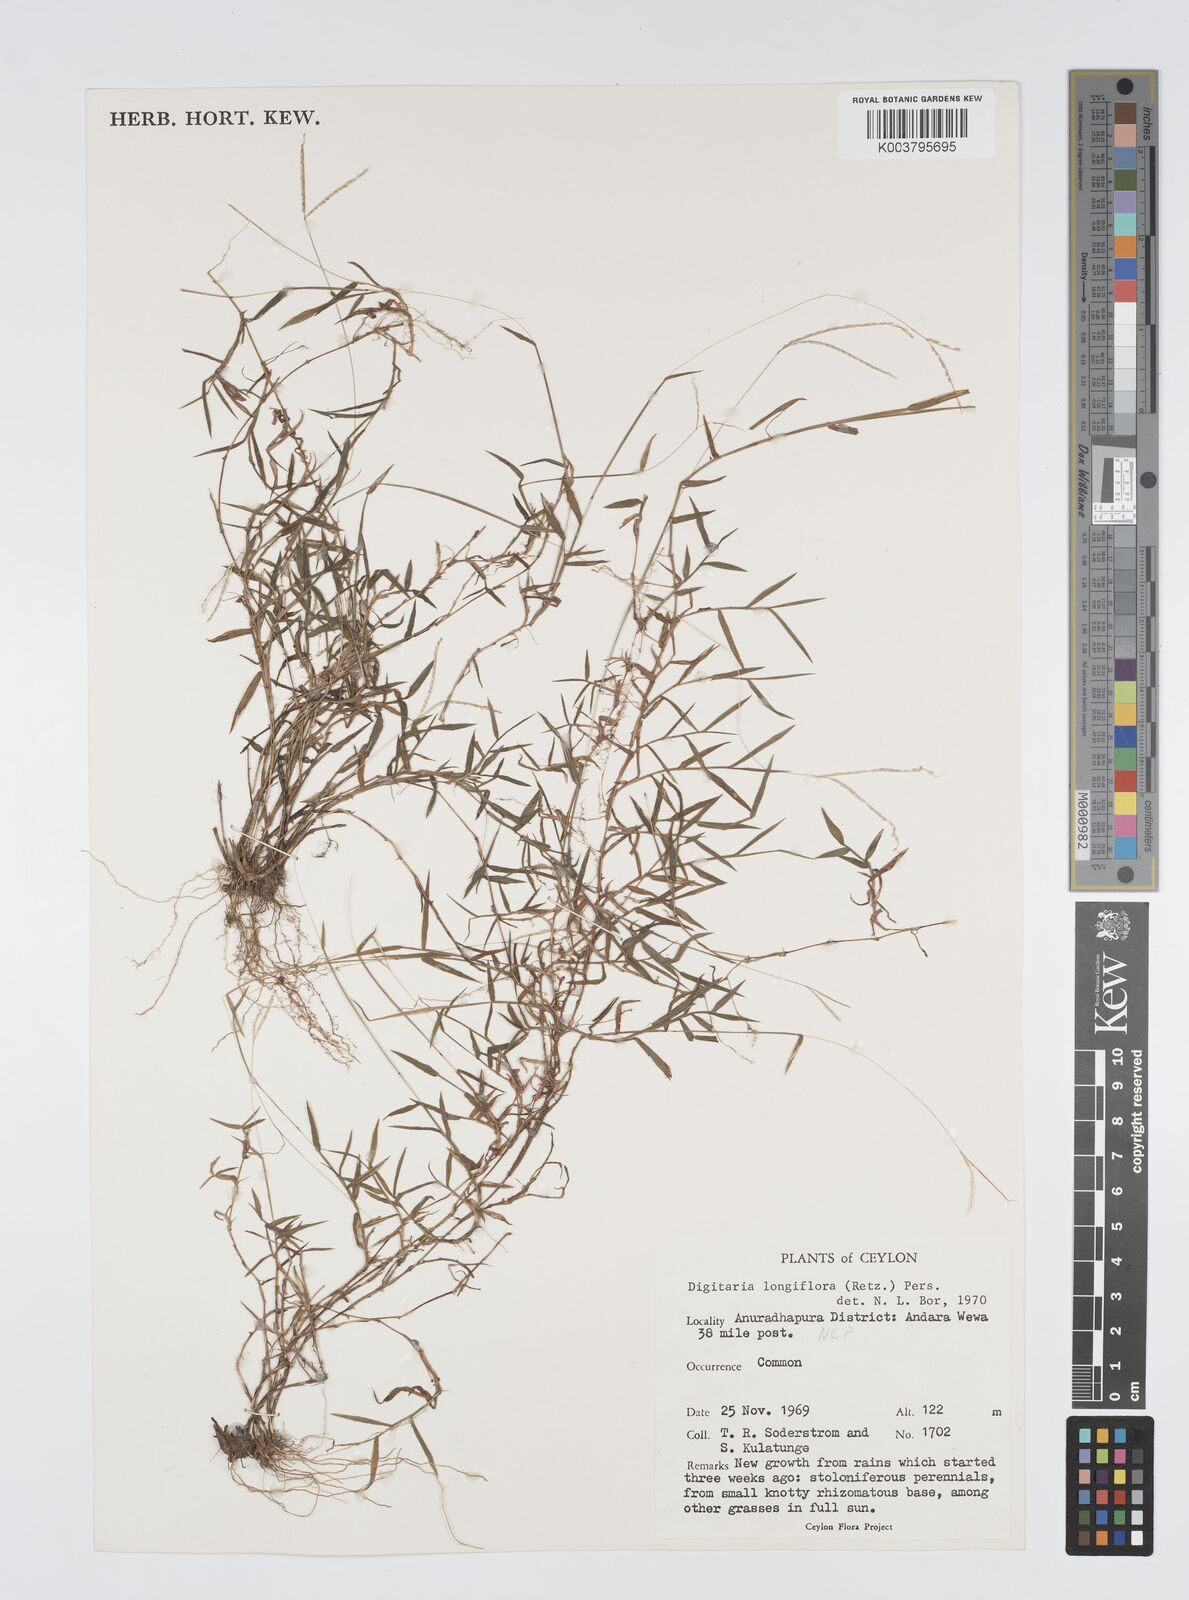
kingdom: Plantae
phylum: Tracheophyta
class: Liliopsida
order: Poales
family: Poaceae
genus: Digitaria
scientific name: Digitaria longiflora
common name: Wire crabgrass
